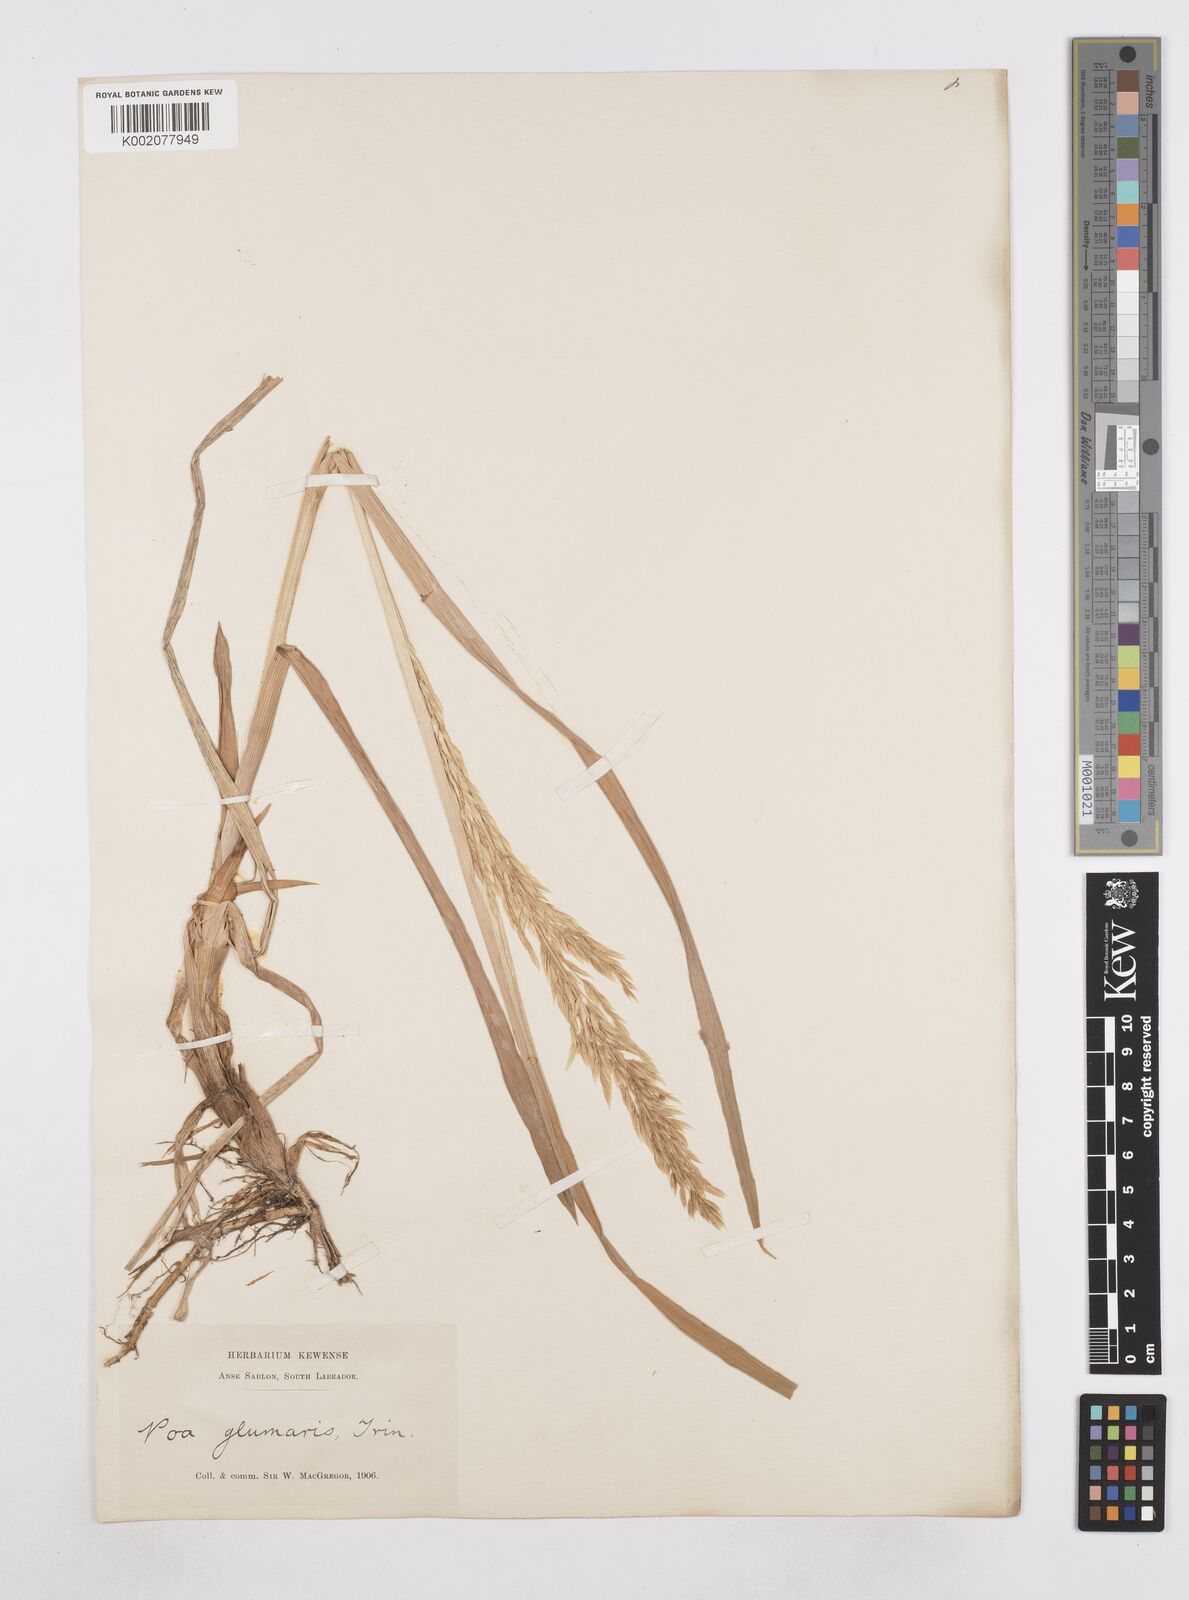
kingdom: Plantae
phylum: Tracheophyta
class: Liliopsida
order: Poales
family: Poaceae
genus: Arctopoa
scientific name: Arctopoa eminens
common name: Eminent bluegrass
